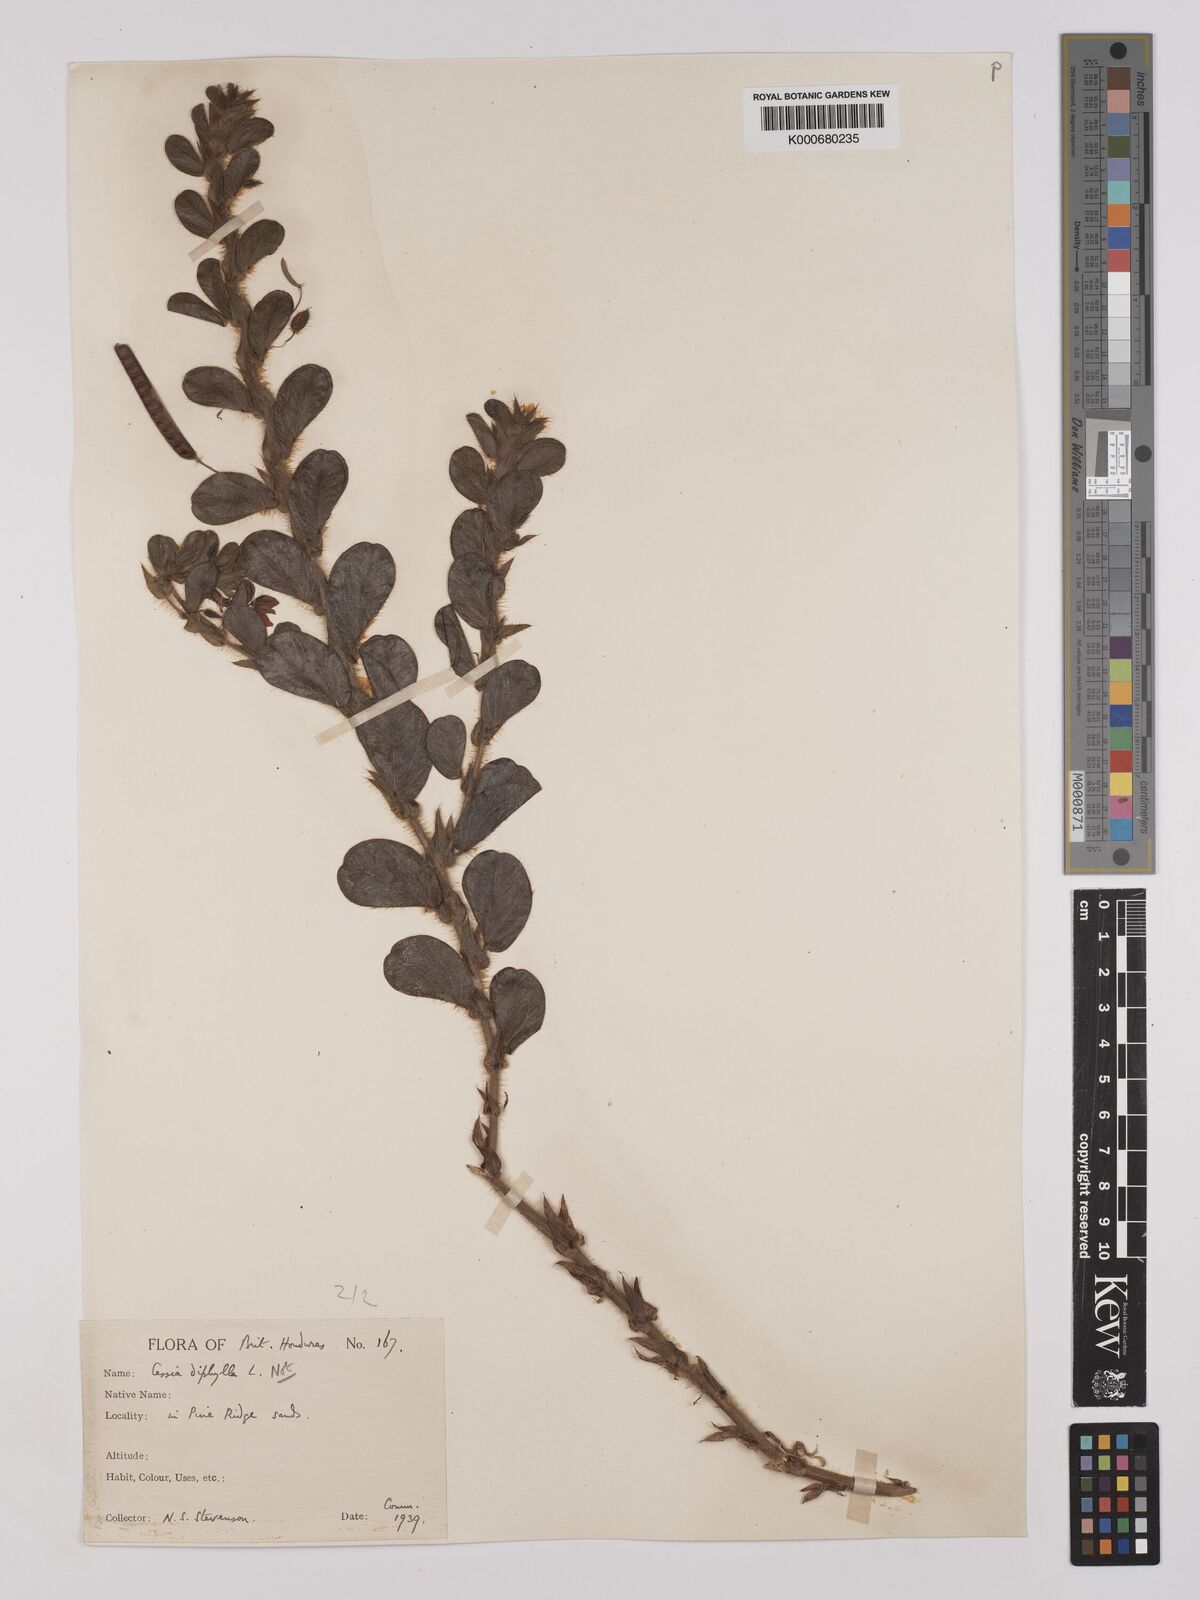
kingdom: Plantae
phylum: Tracheophyta
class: Magnoliopsida
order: Fabales
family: Fabaceae
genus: Chamaecrista
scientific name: Chamaecrista rotundifolia
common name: Round-leaf cassia
